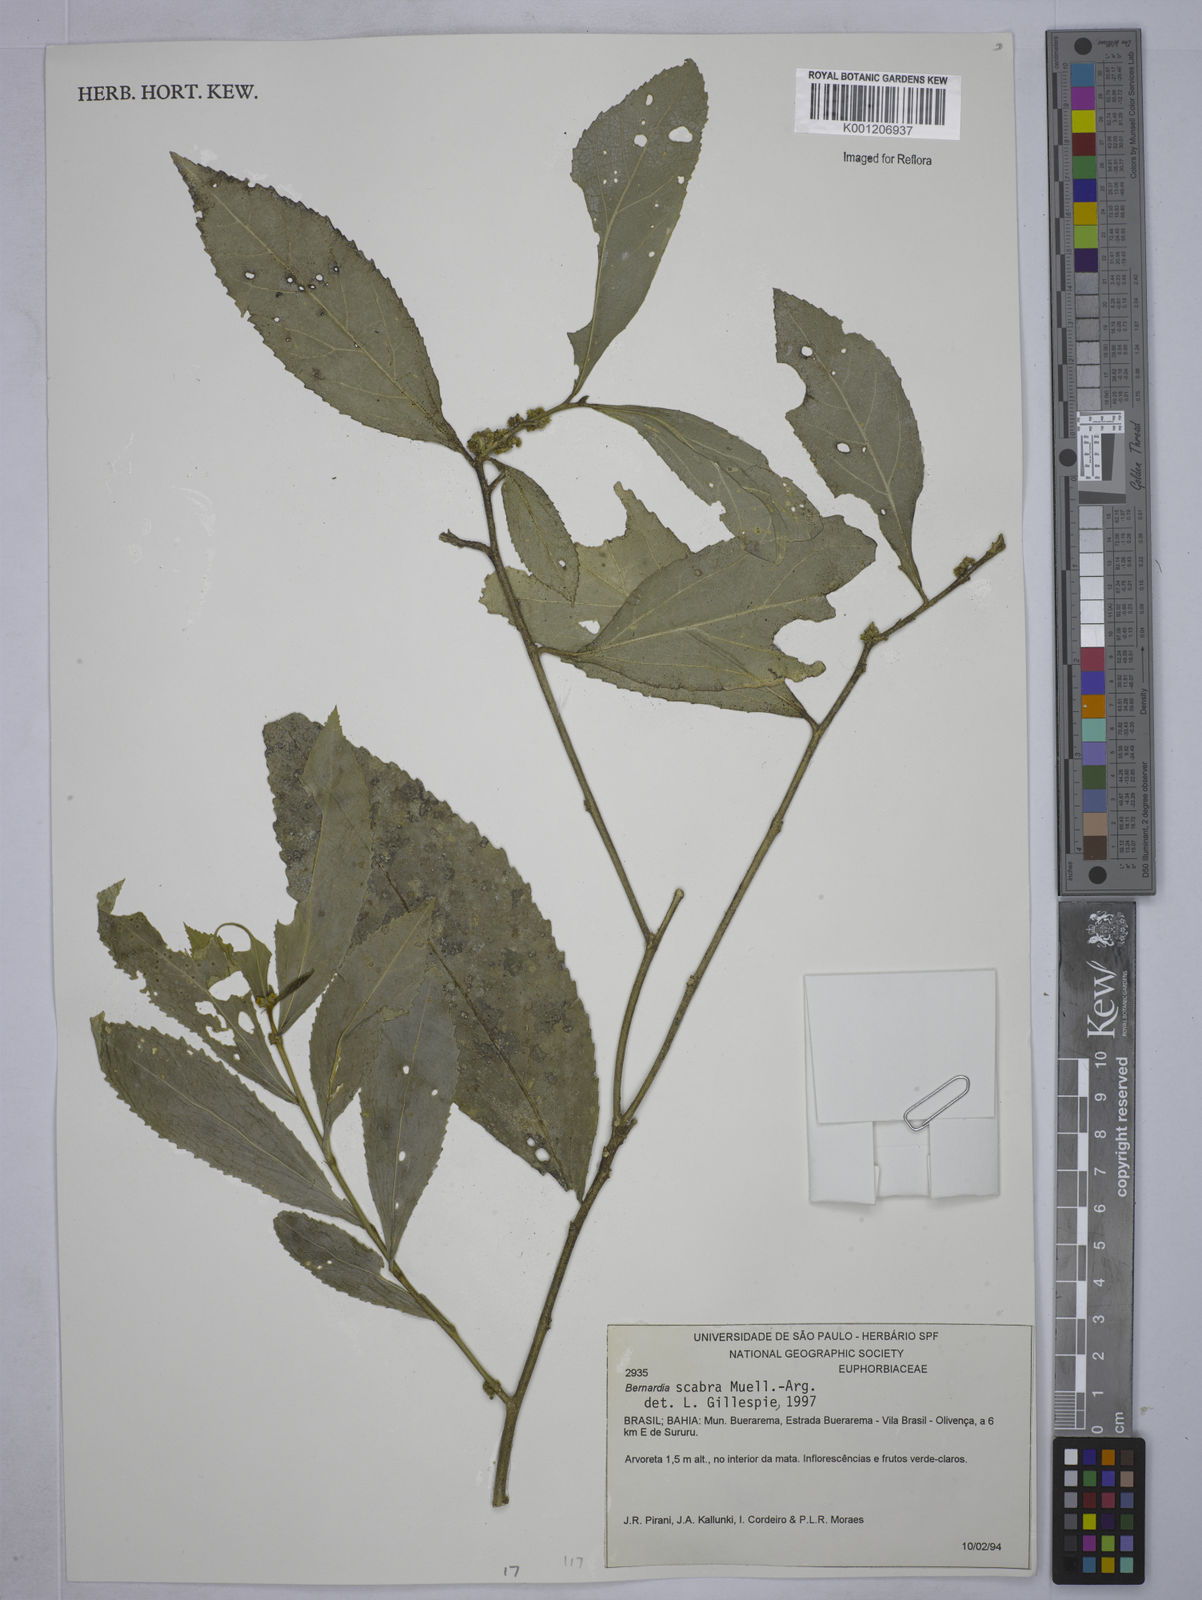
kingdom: Plantae
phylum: Tracheophyta
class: Magnoliopsida
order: Malpighiales
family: Euphorbiaceae
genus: Bernardia
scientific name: Bernardia
